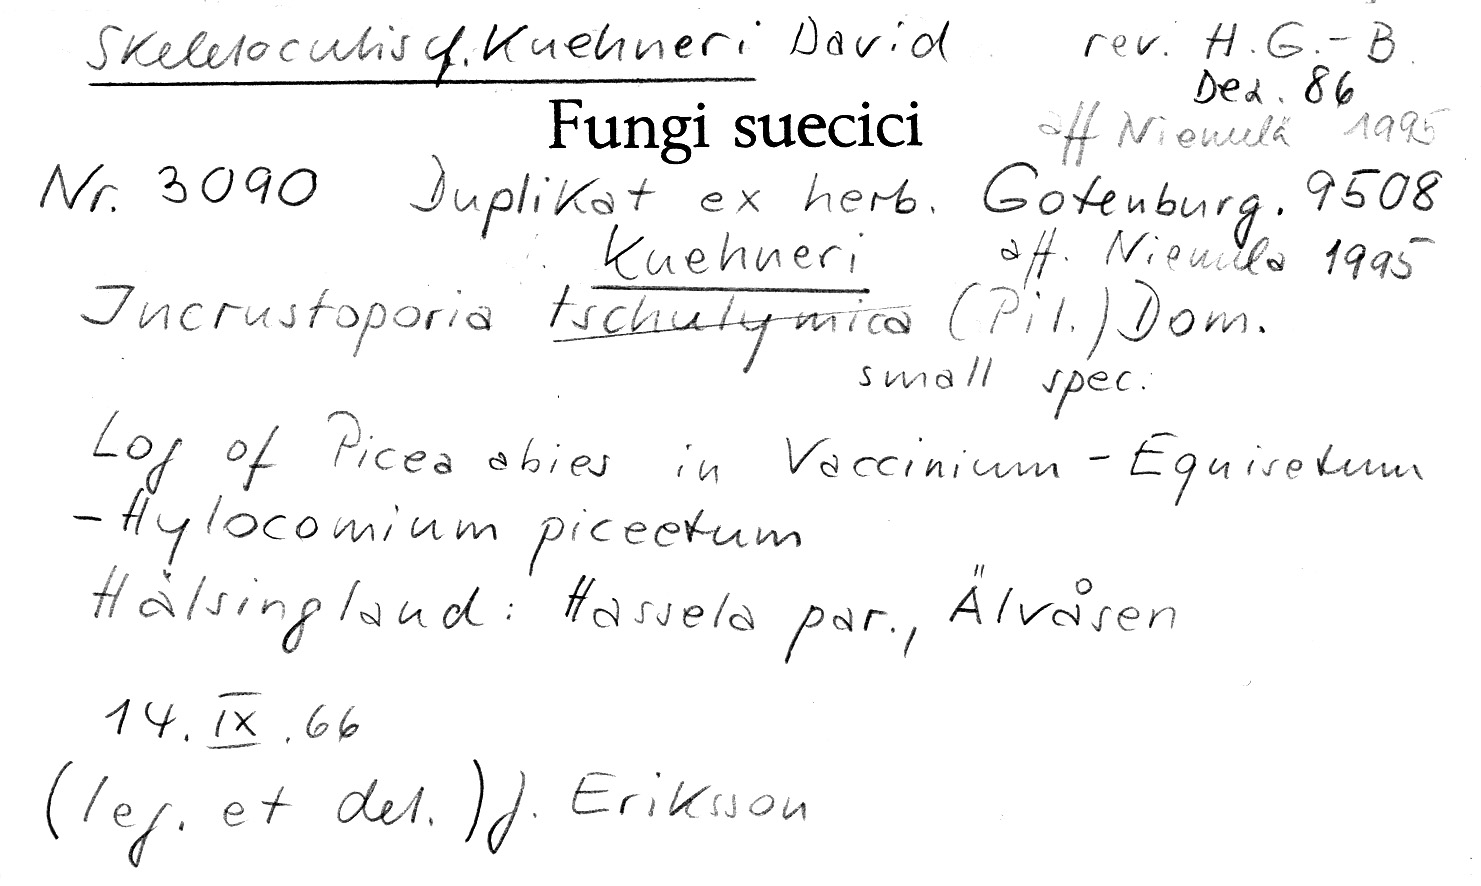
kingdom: Fungi
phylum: Basidiomycota
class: Agaricomycetes
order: Polyporales
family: Incrustoporiaceae
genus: Skeletocutis
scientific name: Skeletocutis kuehneri
